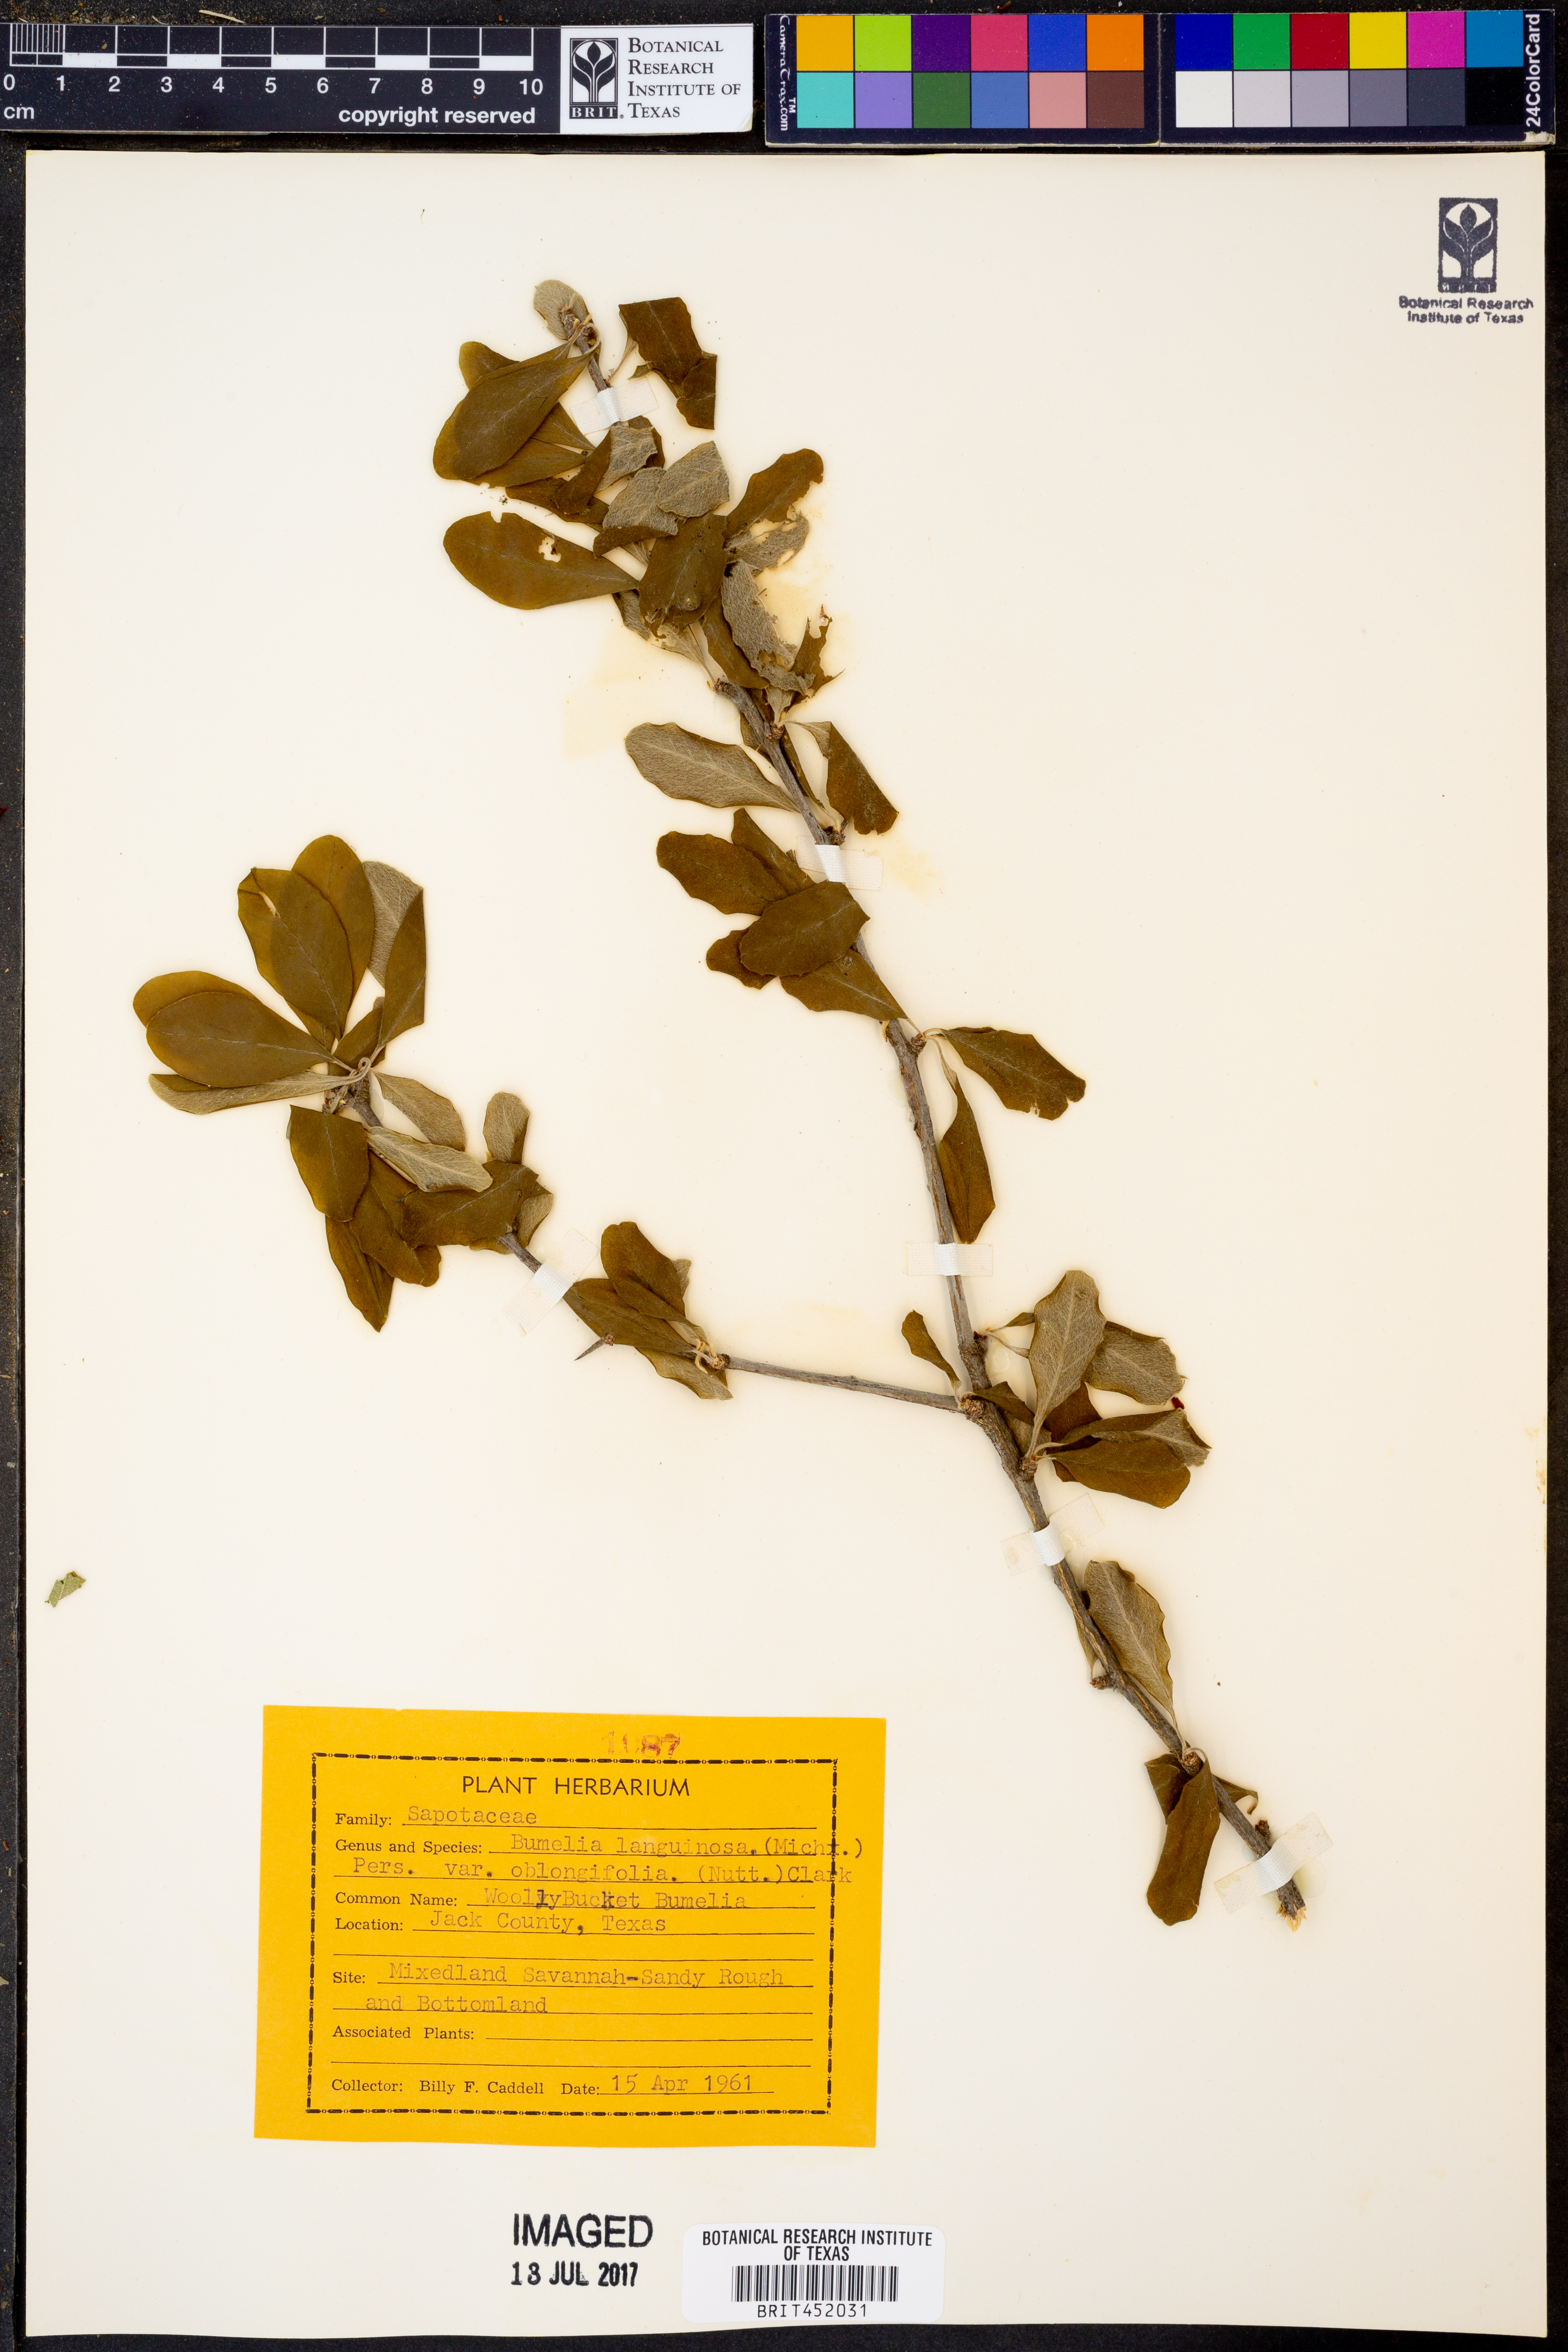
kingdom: Plantae
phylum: Tracheophyta
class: Magnoliopsida
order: Ericales
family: Sapotaceae
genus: Sideroxylon
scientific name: Sideroxylon lanuginosum
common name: Chittamwood
